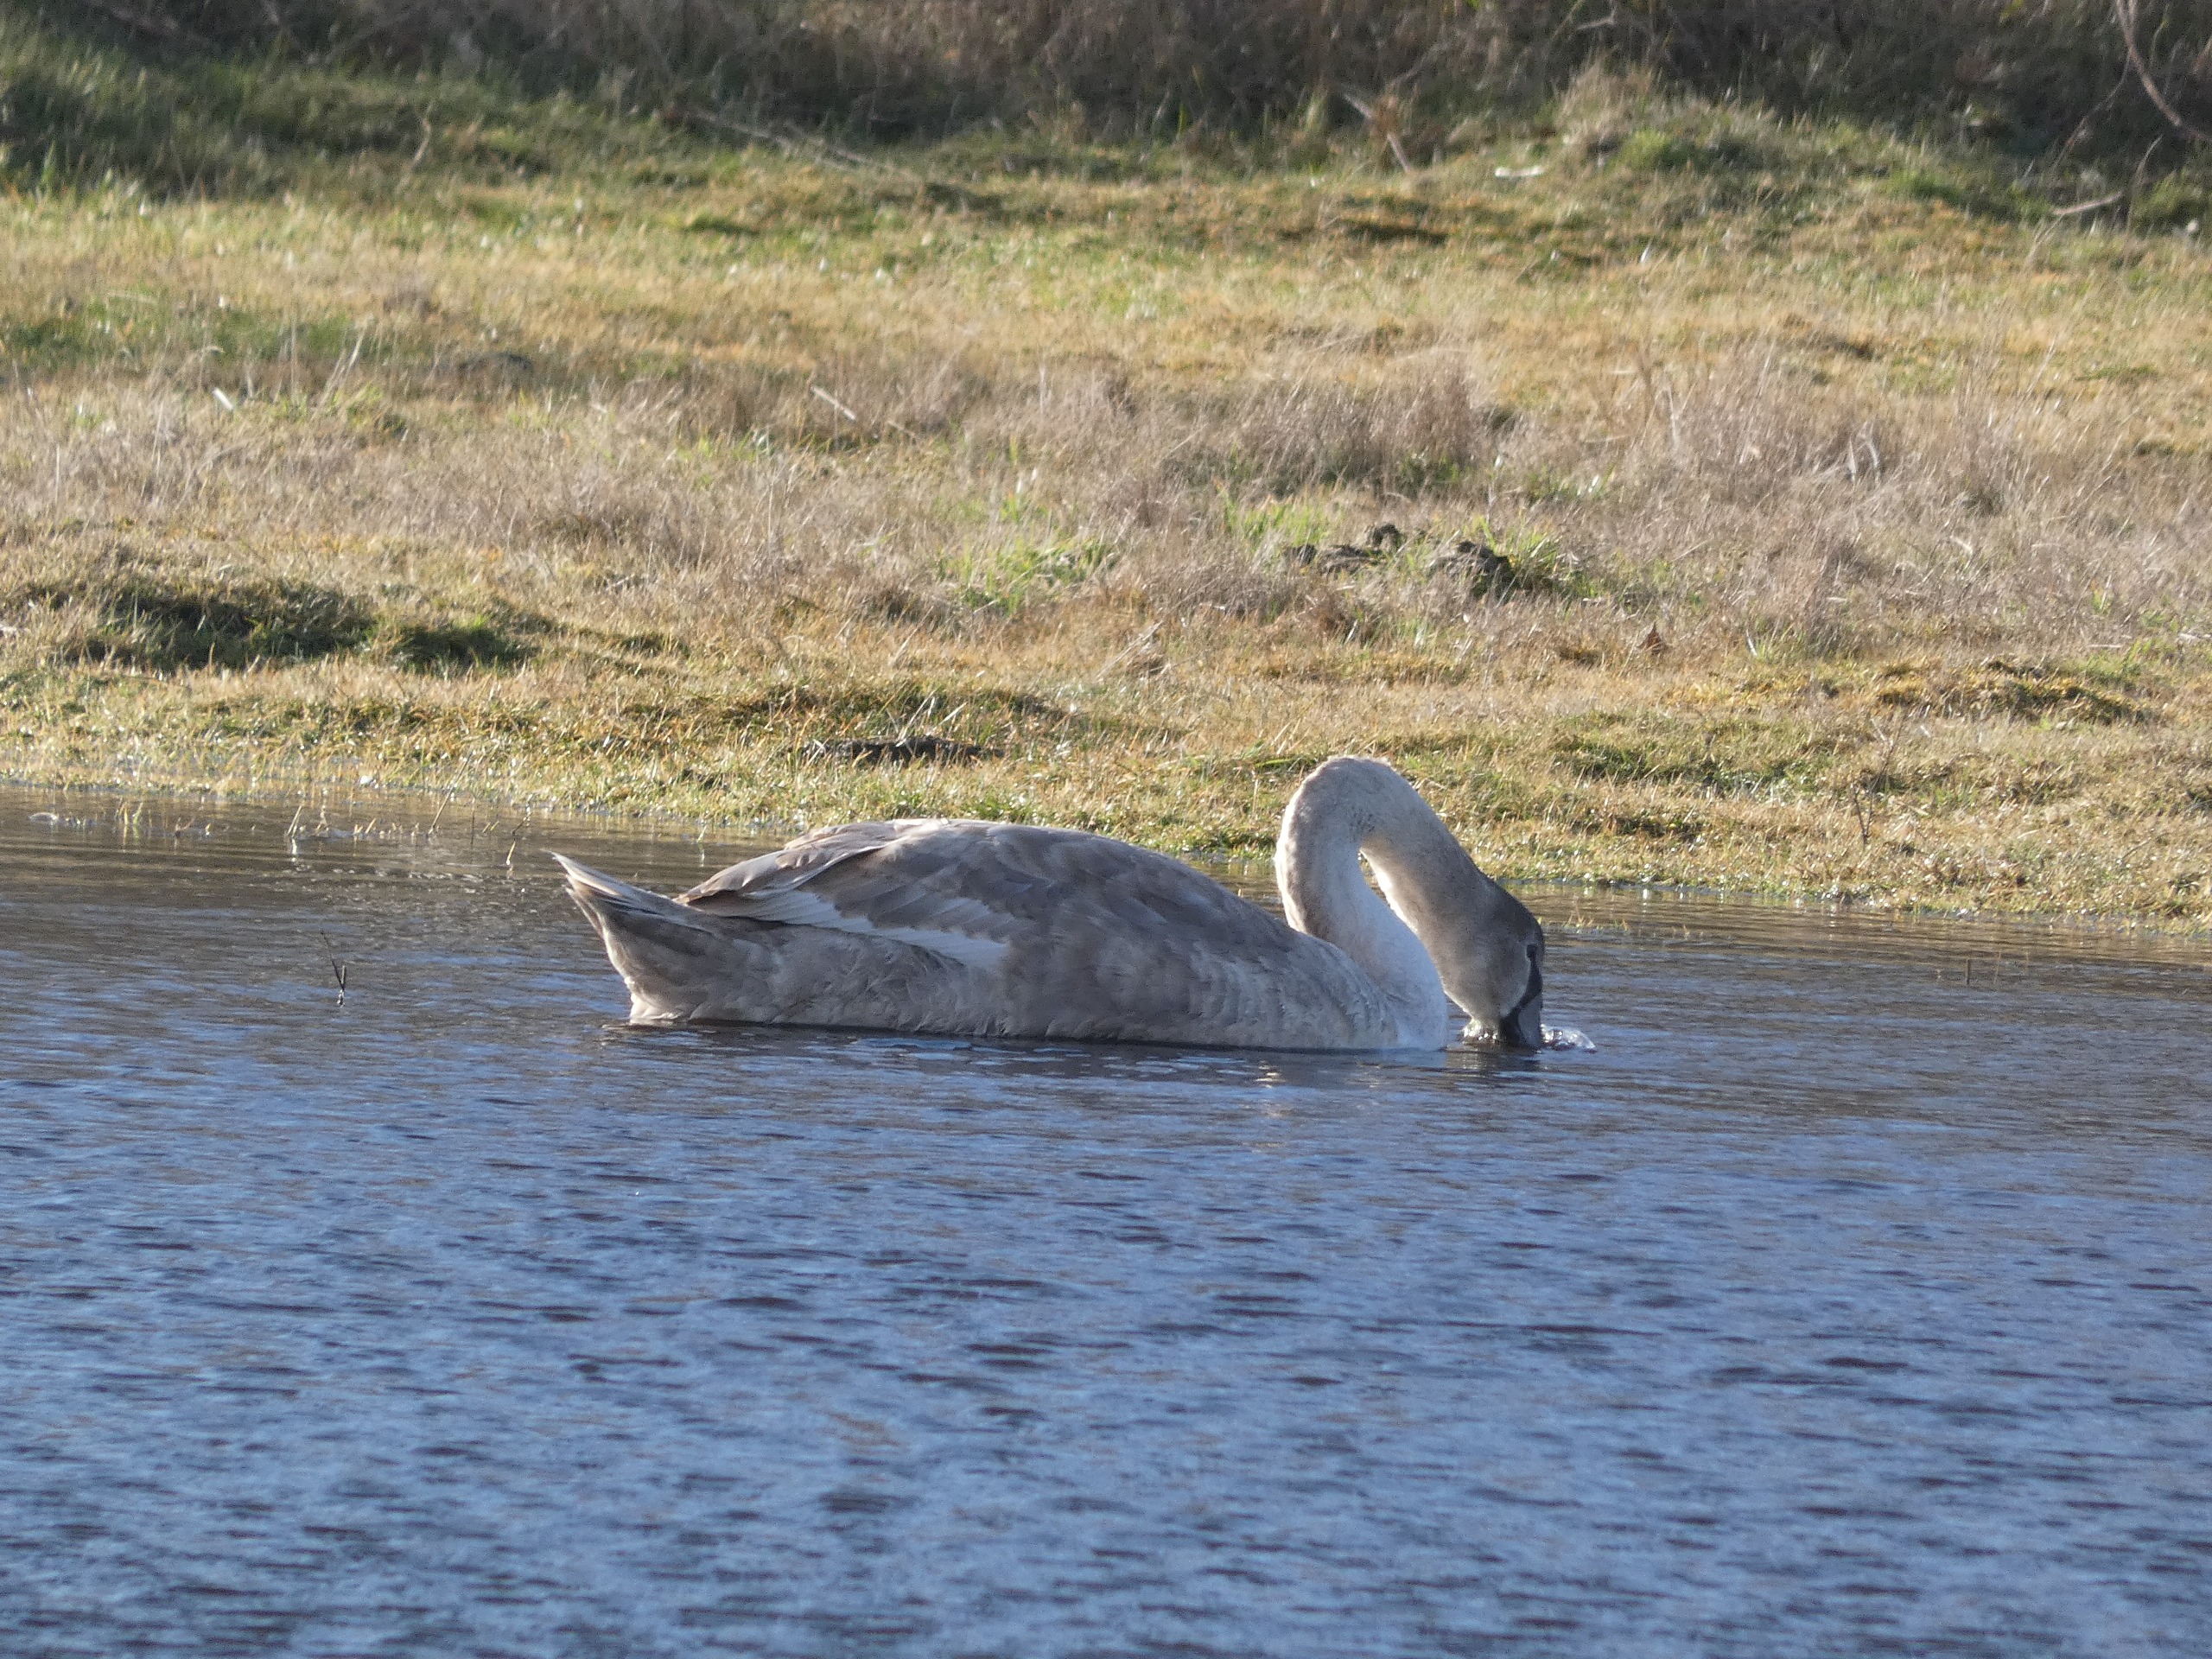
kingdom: Animalia
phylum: Chordata
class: Aves
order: Anseriformes
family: Anatidae
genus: Cygnus
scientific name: Cygnus olor
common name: Knopsvane
